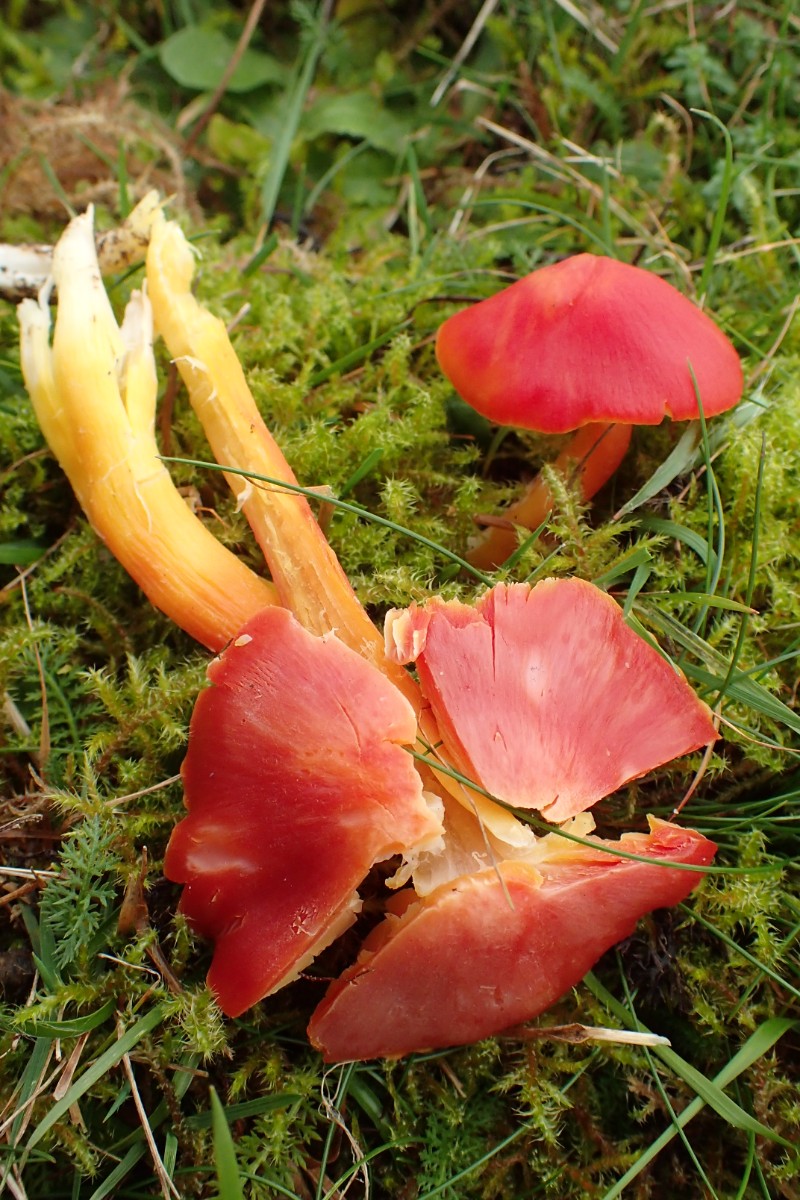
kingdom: Fungi
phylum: Basidiomycota
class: Agaricomycetes
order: Agaricales
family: Hygrophoraceae
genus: Hygrocybe
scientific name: Hygrocybe splendidissima
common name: knaldrød vokshat
